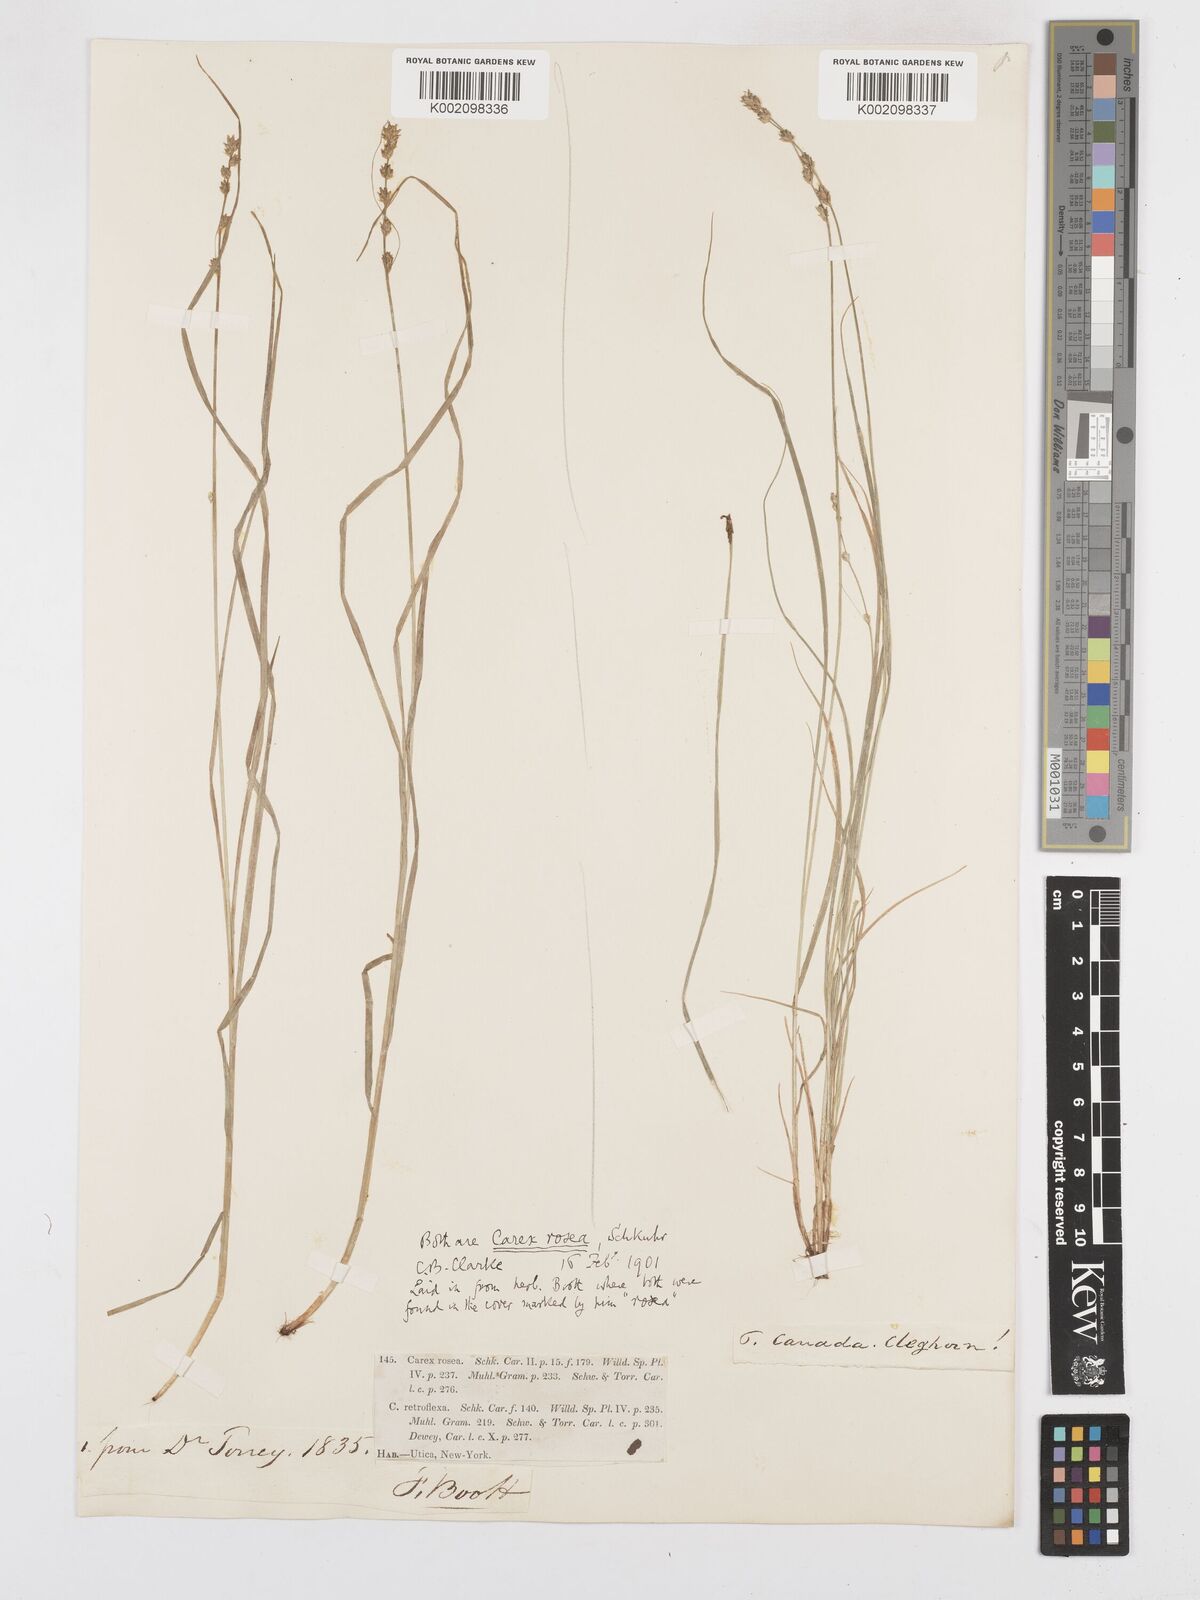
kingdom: Plantae
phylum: Tracheophyta
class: Liliopsida
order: Poales
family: Cyperaceae
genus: Carex
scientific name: Carex rosea
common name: Curly-styled wood sedge
